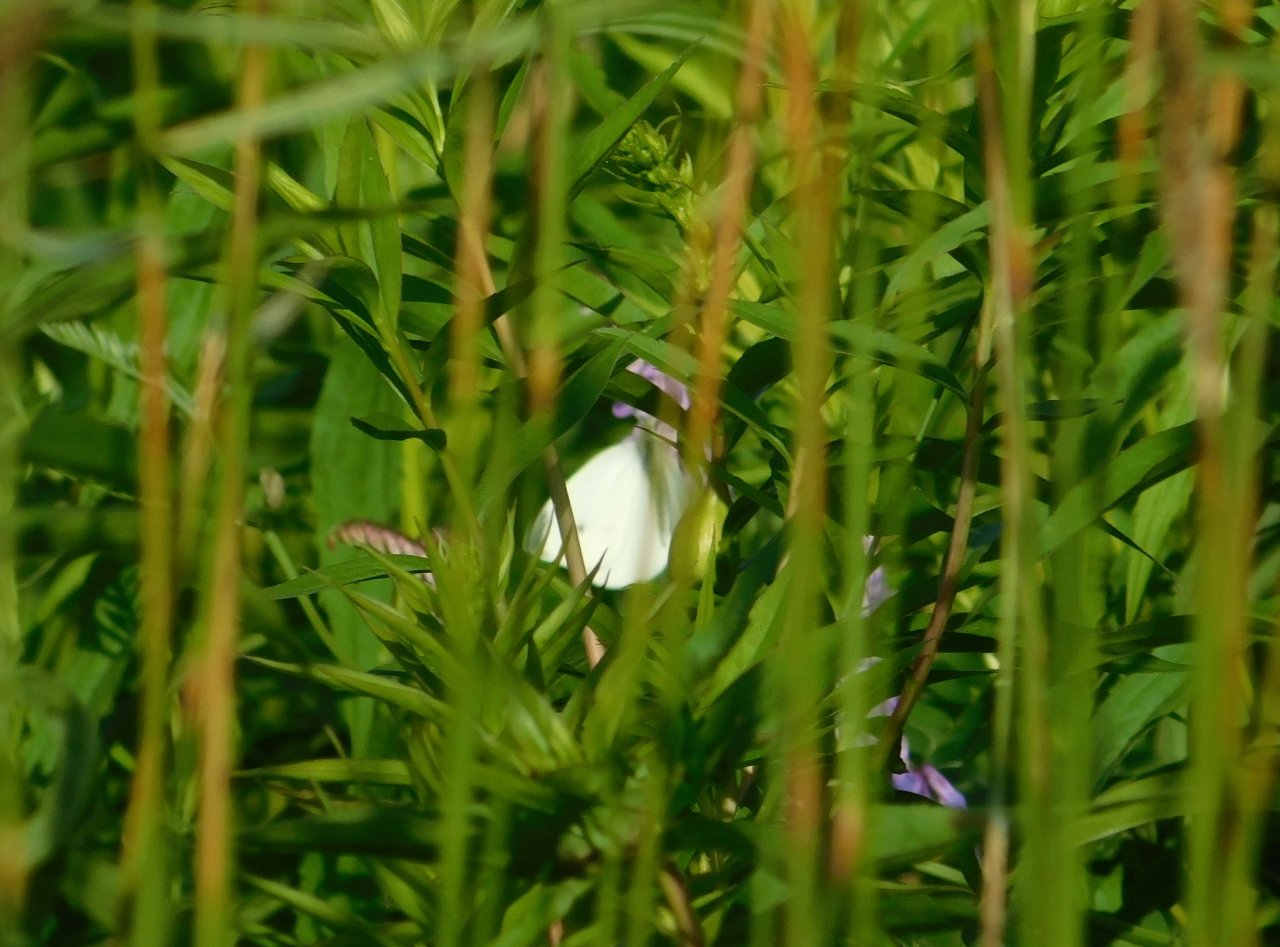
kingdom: Animalia
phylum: Arthropoda
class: Insecta
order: Lepidoptera
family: Pieridae
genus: Pieris
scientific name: Pieris rapae
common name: Cabbage White
